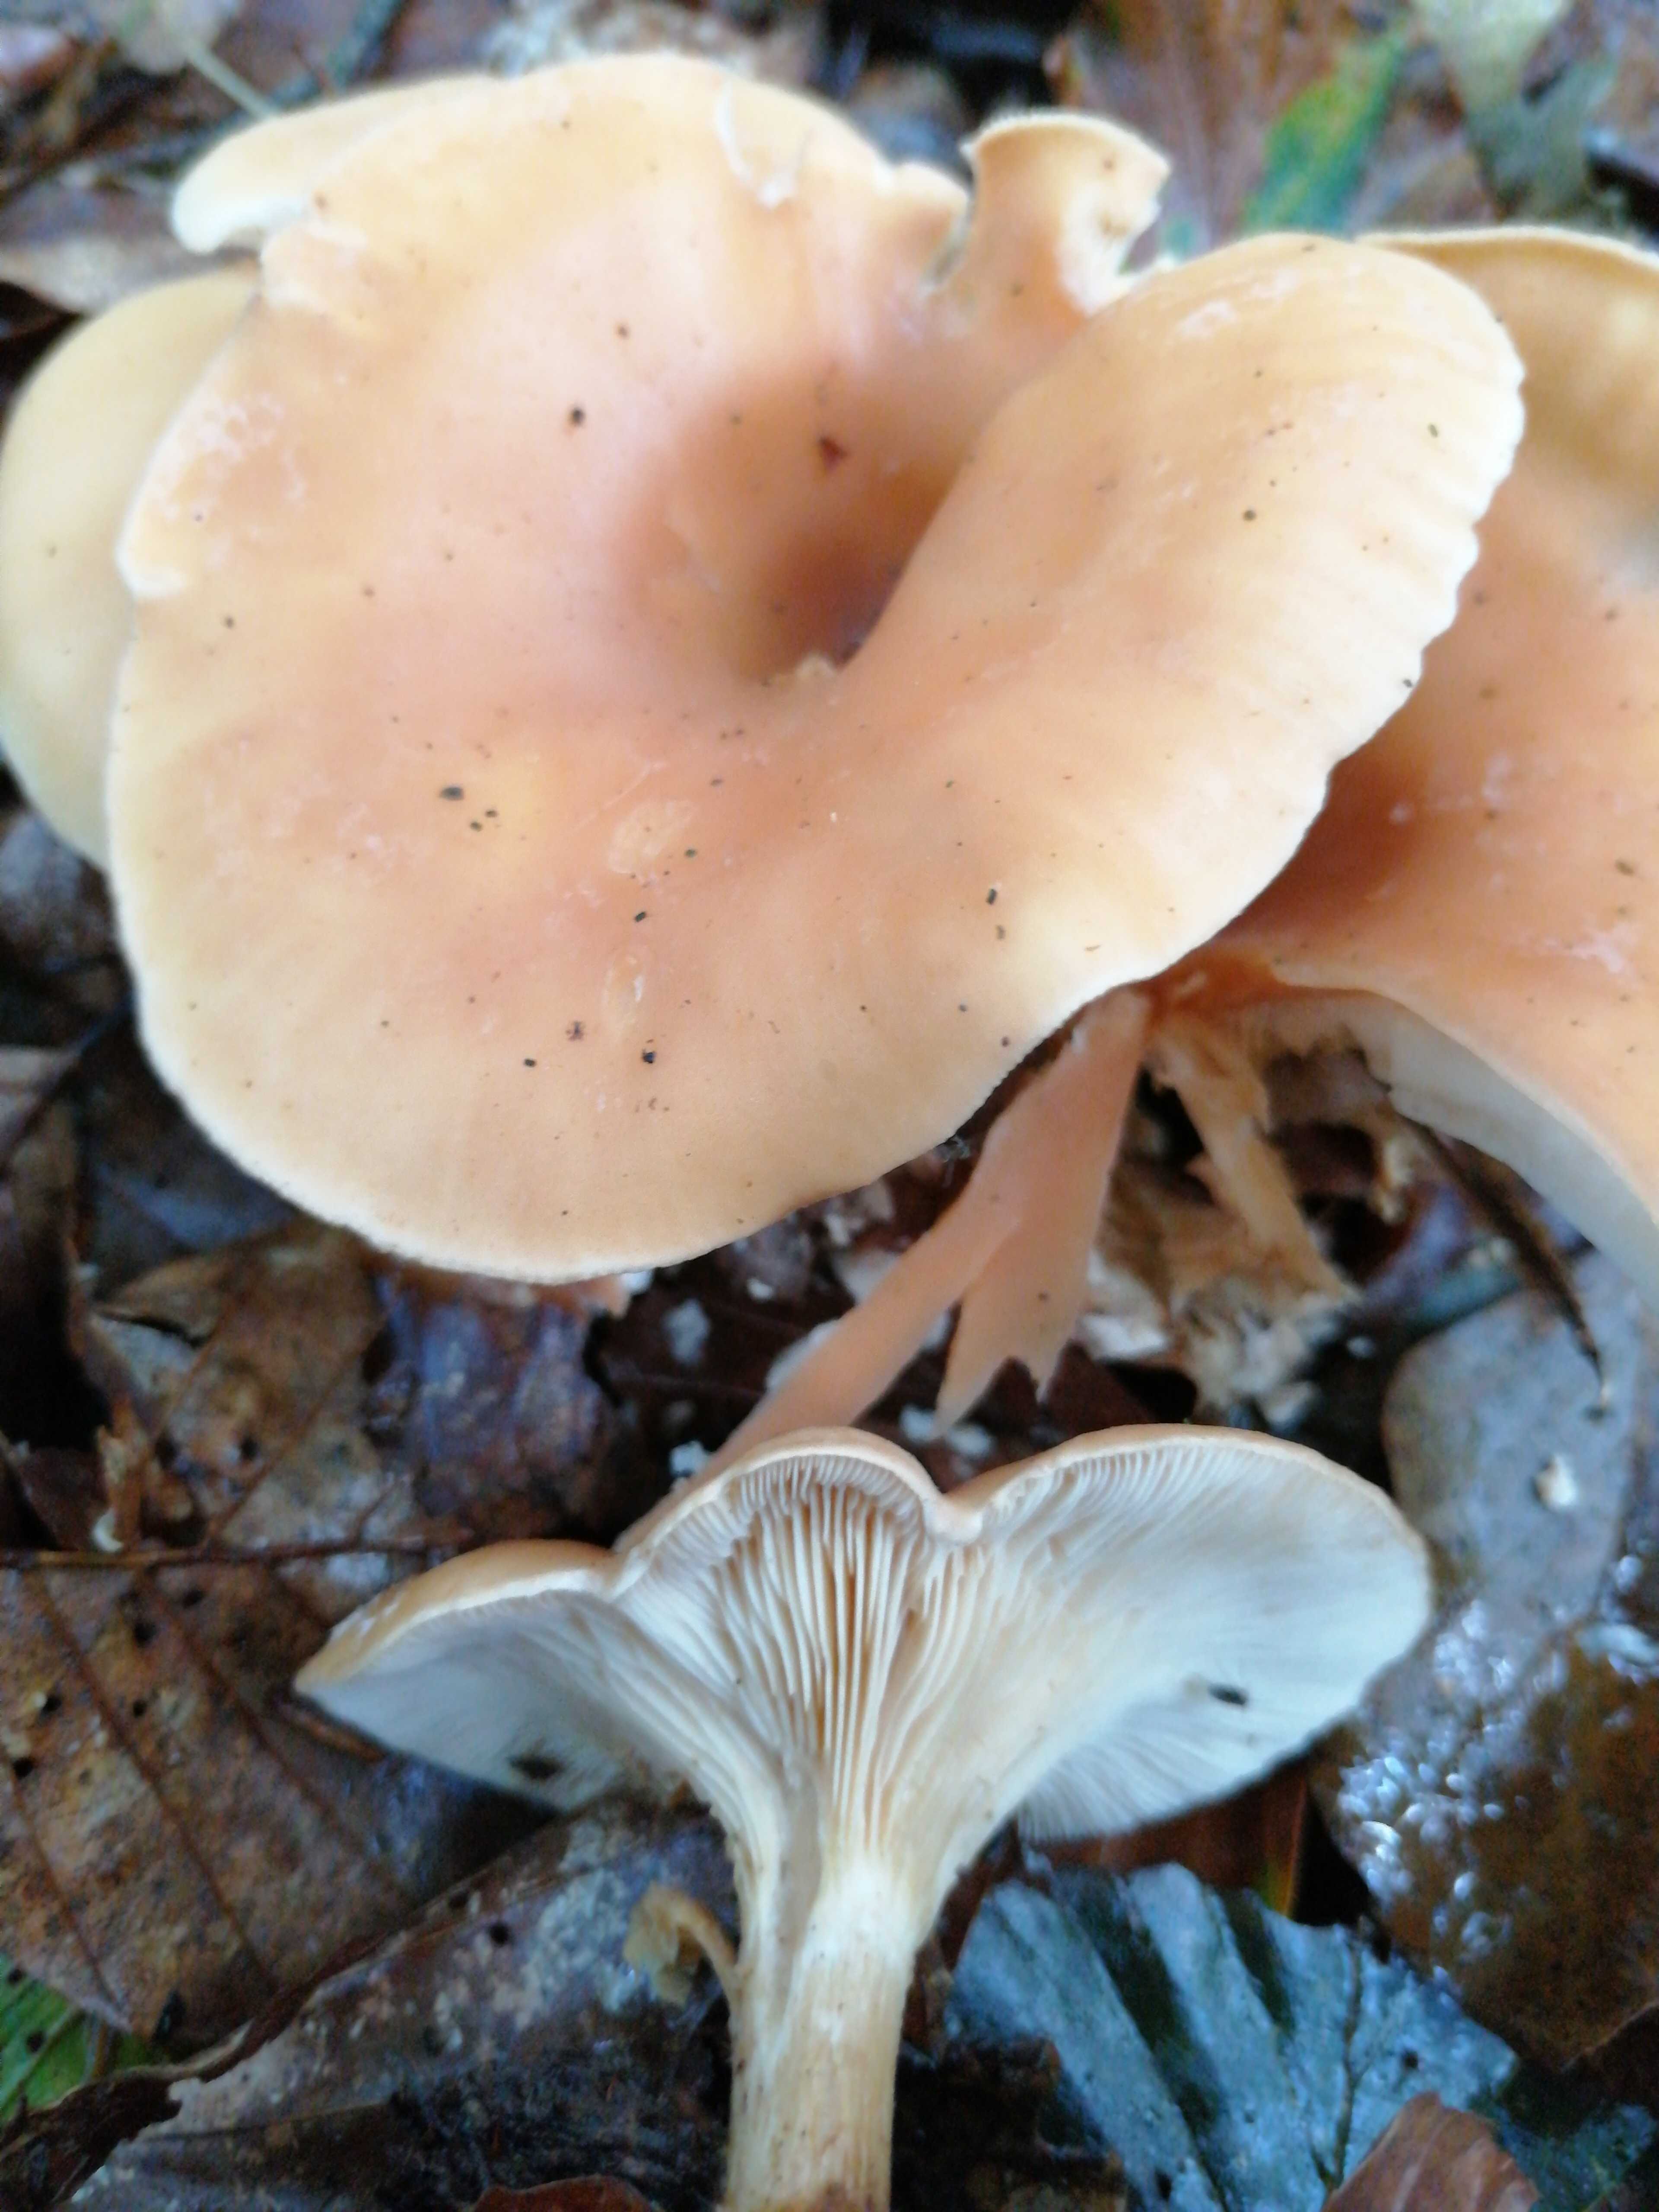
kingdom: Fungi
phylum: Basidiomycota
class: Agaricomycetes
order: Agaricales
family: Tricholomataceae
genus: Paralepista
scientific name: Paralepista
